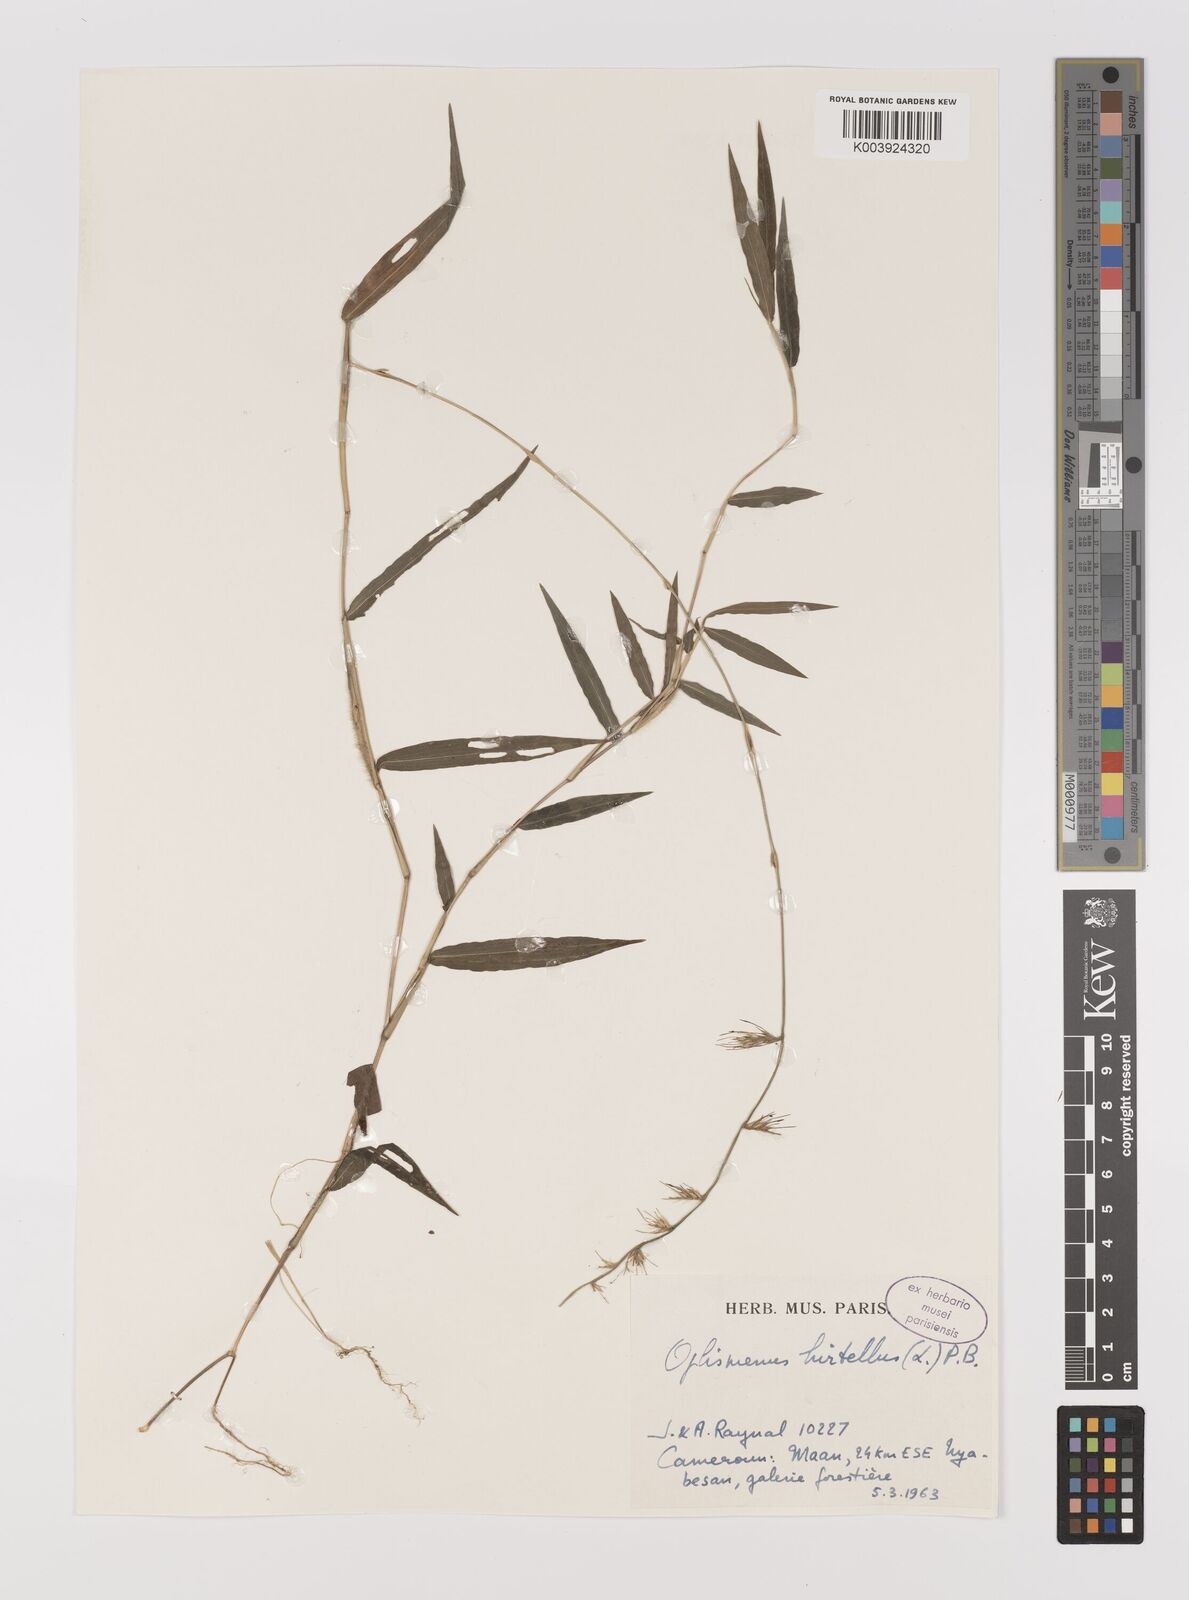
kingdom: Plantae
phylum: Tracheophyta
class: Liliopsida
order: Poales
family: Poaceae
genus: Oplismenus
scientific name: Oplismenus hirtellus
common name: Basketgrass
